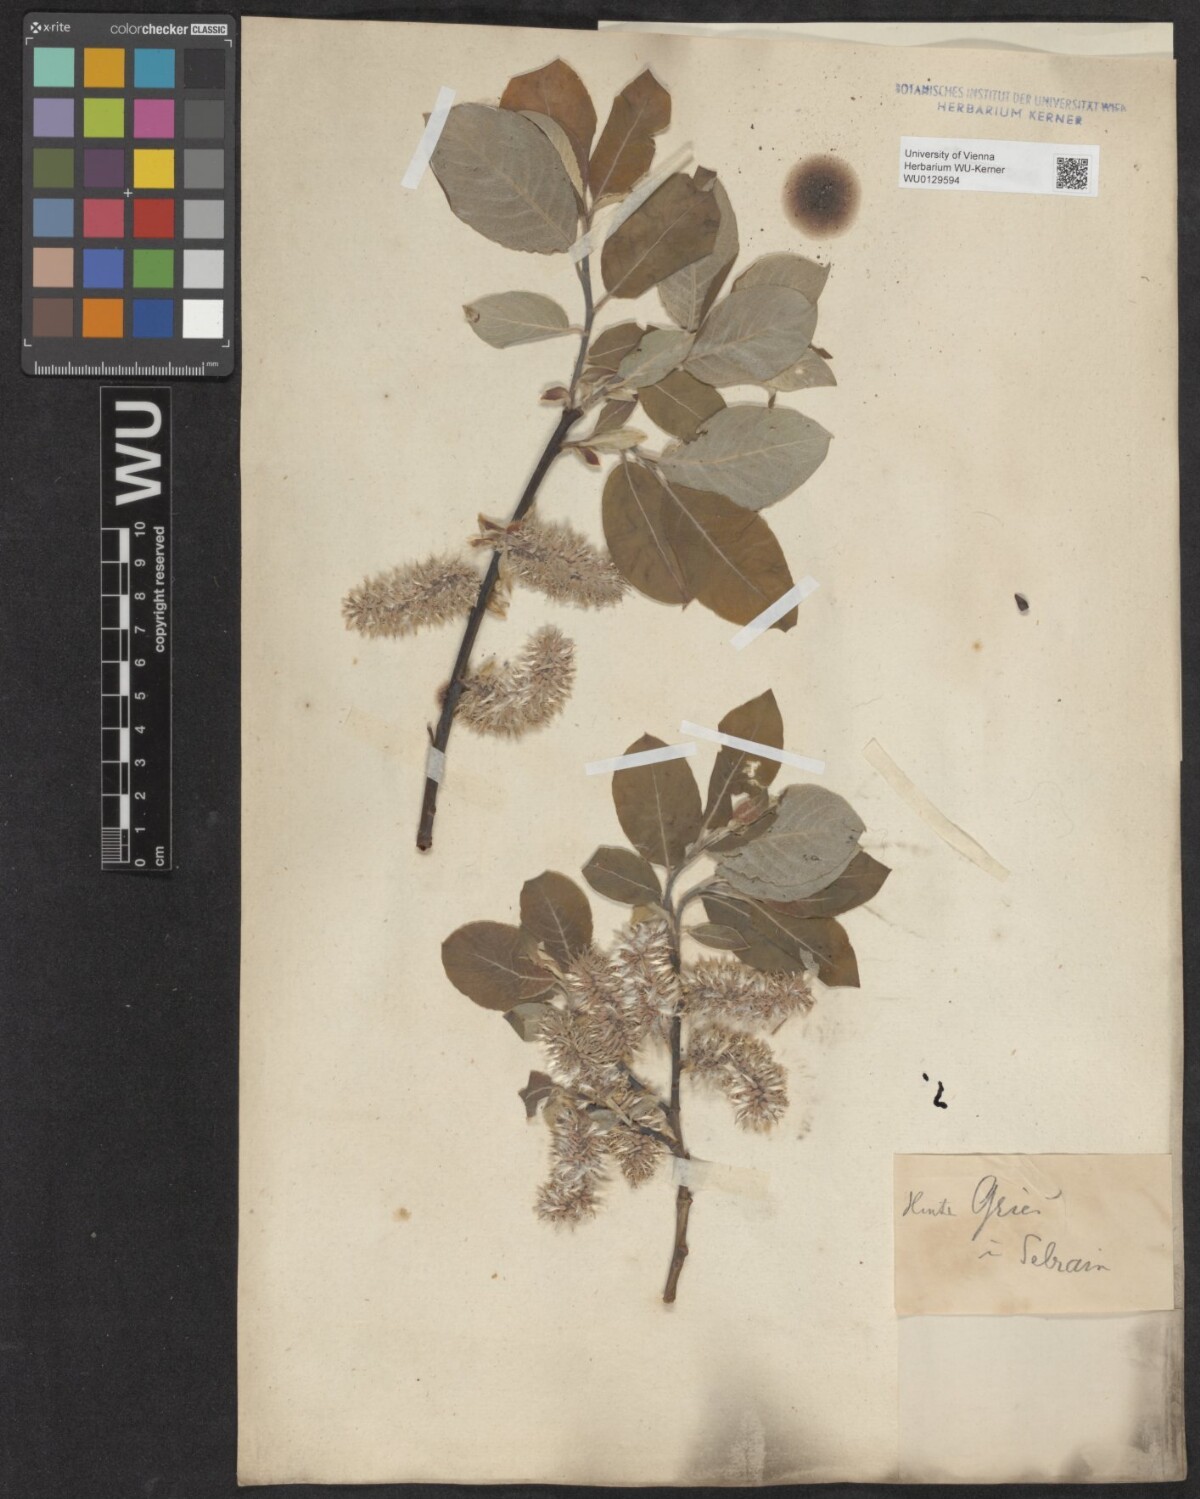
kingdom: Plantae
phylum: Tracheophyta
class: Magnoliopsida
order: Malpighiales
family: Salicaceae
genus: Salix
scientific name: Salix caprea
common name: Goat willow
